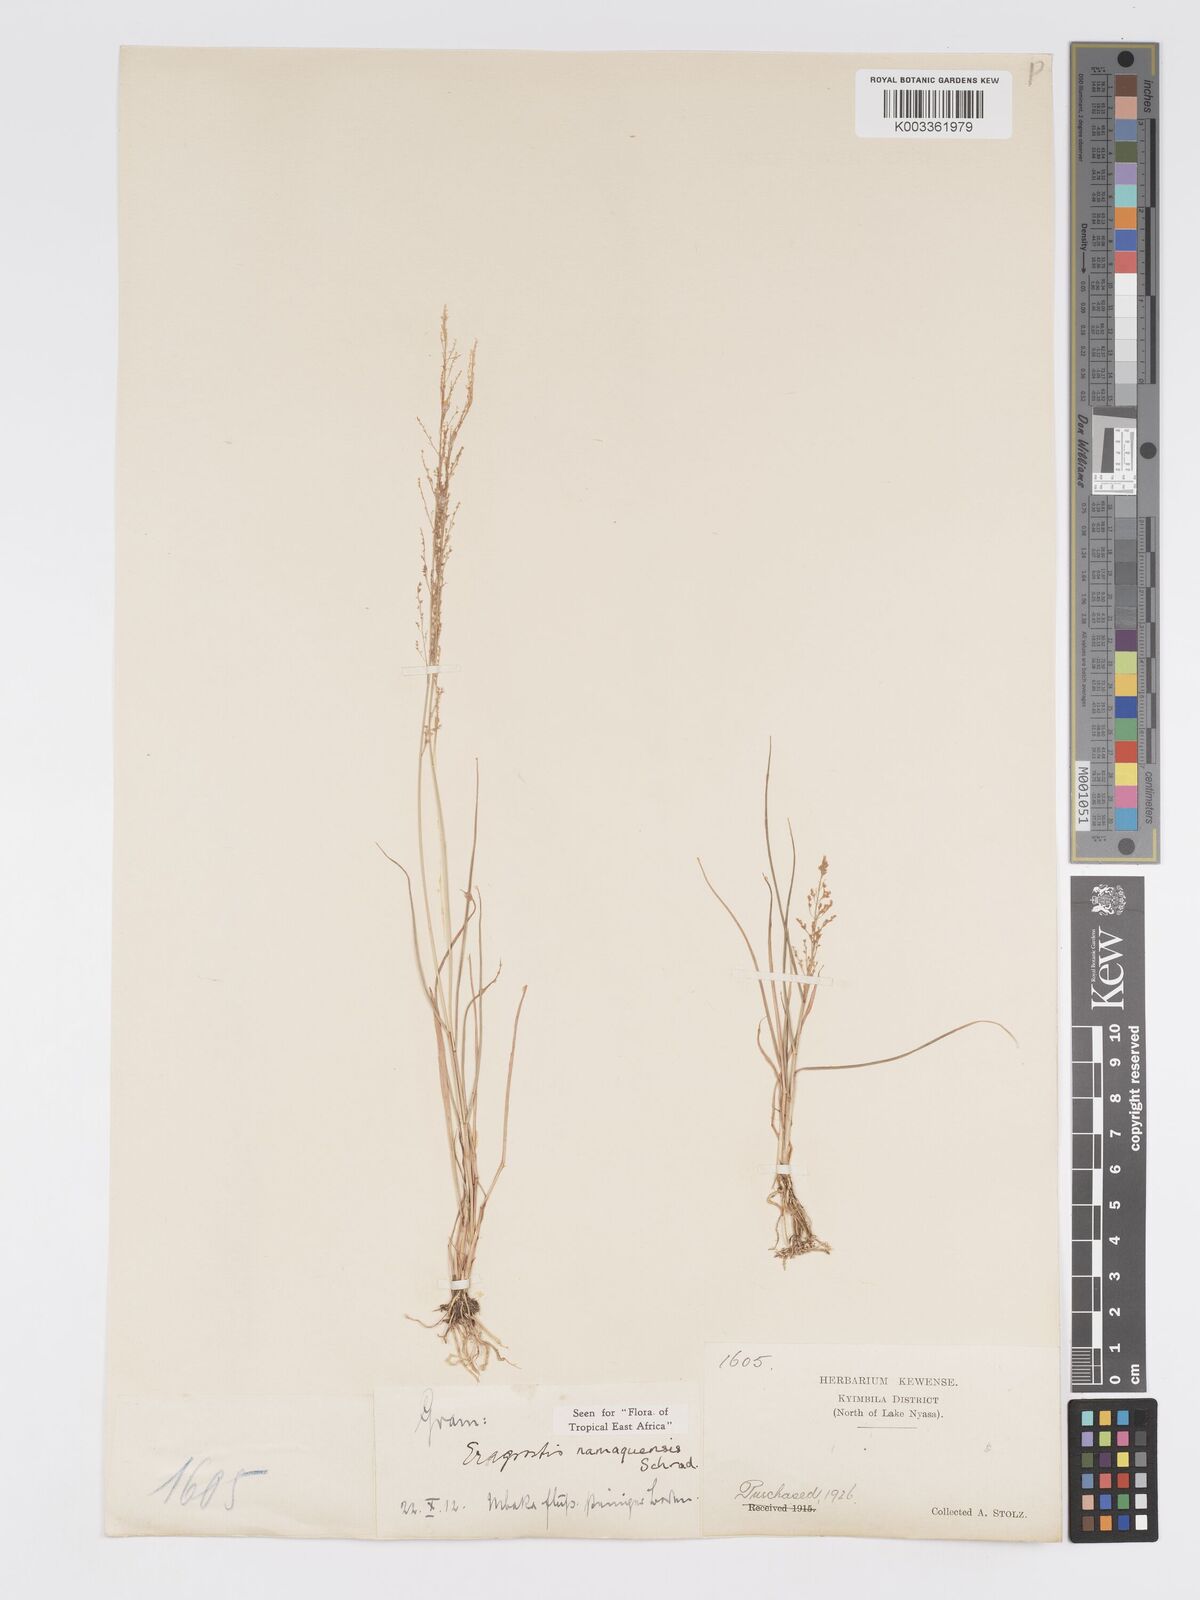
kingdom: Plantae
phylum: Tracheophyta
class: Liliopsida
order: Poales
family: Poaceae
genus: Eragrostis
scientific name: Eragrostis japonica
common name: Pond lovegrass
